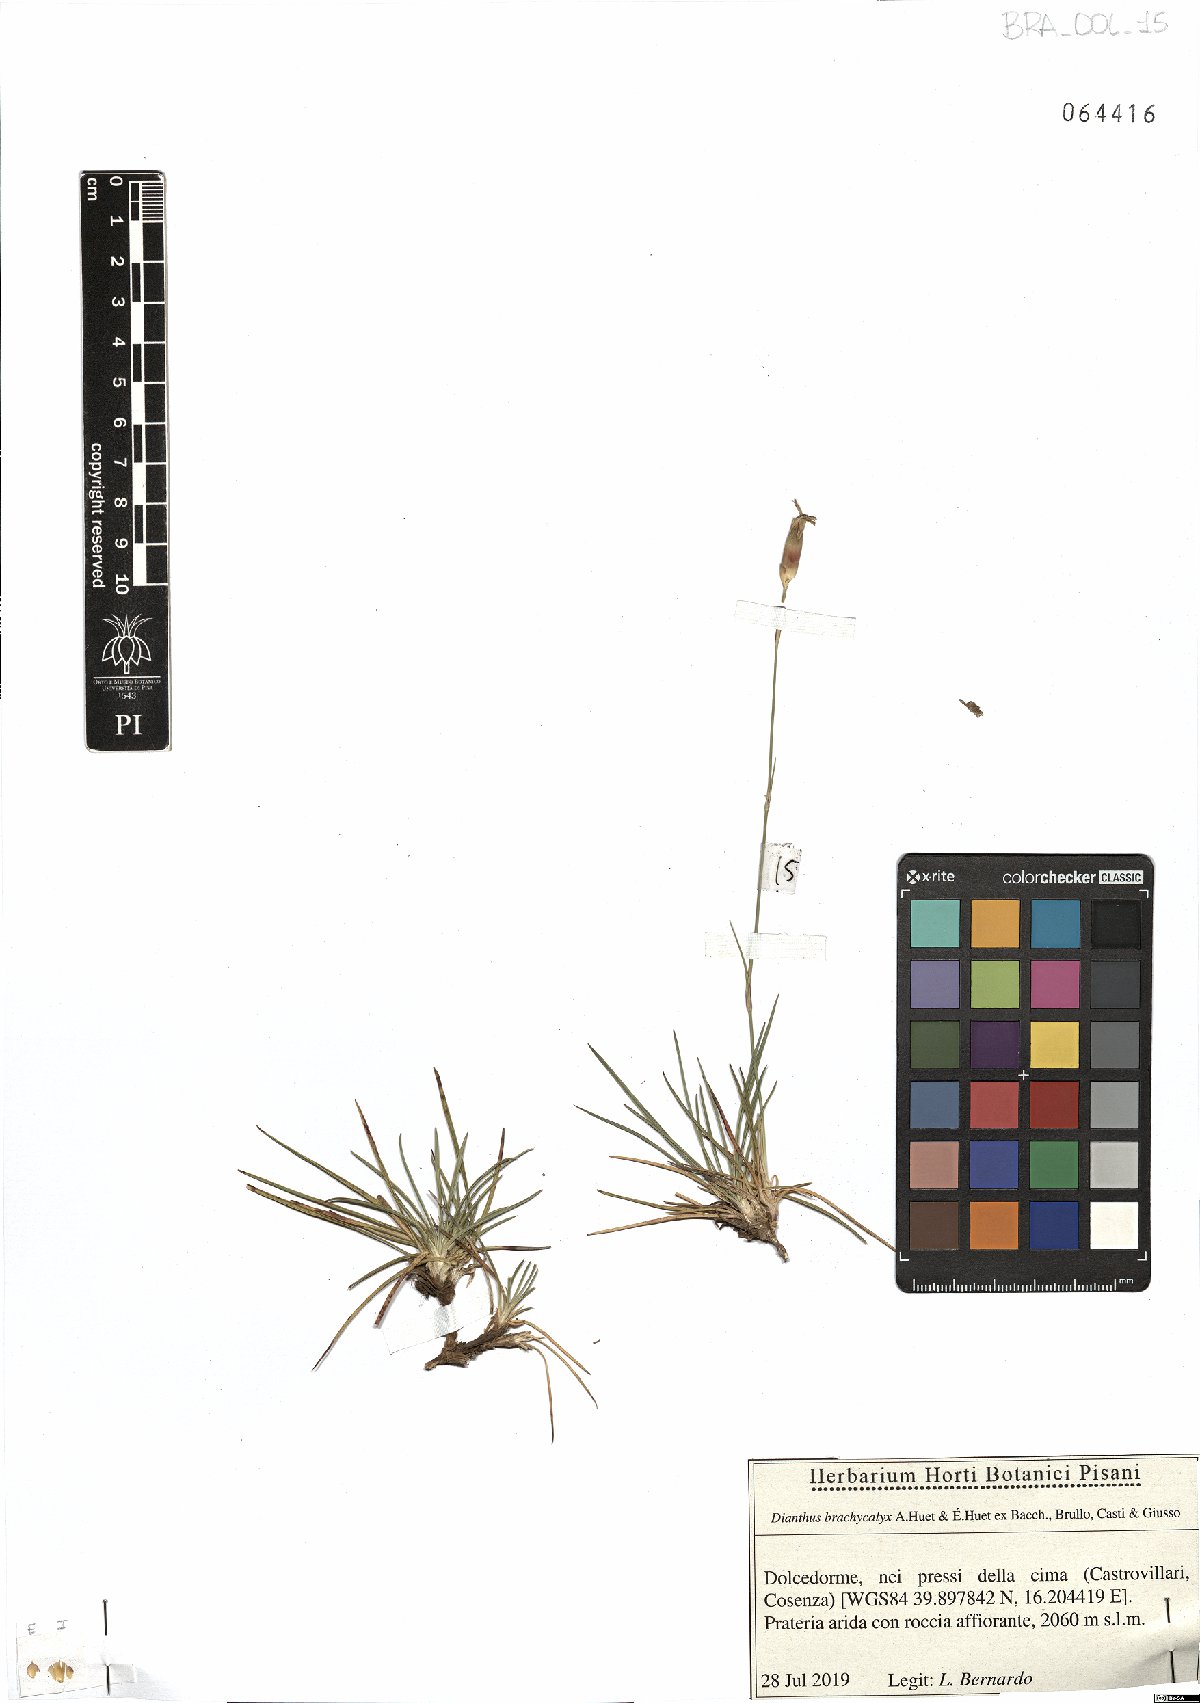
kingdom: Plantae
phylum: Tracheophyta
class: Magnoliopsida
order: Caryophyllales
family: Caryophyllaceae
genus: Dianthus
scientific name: Dianthus brachycalyx
